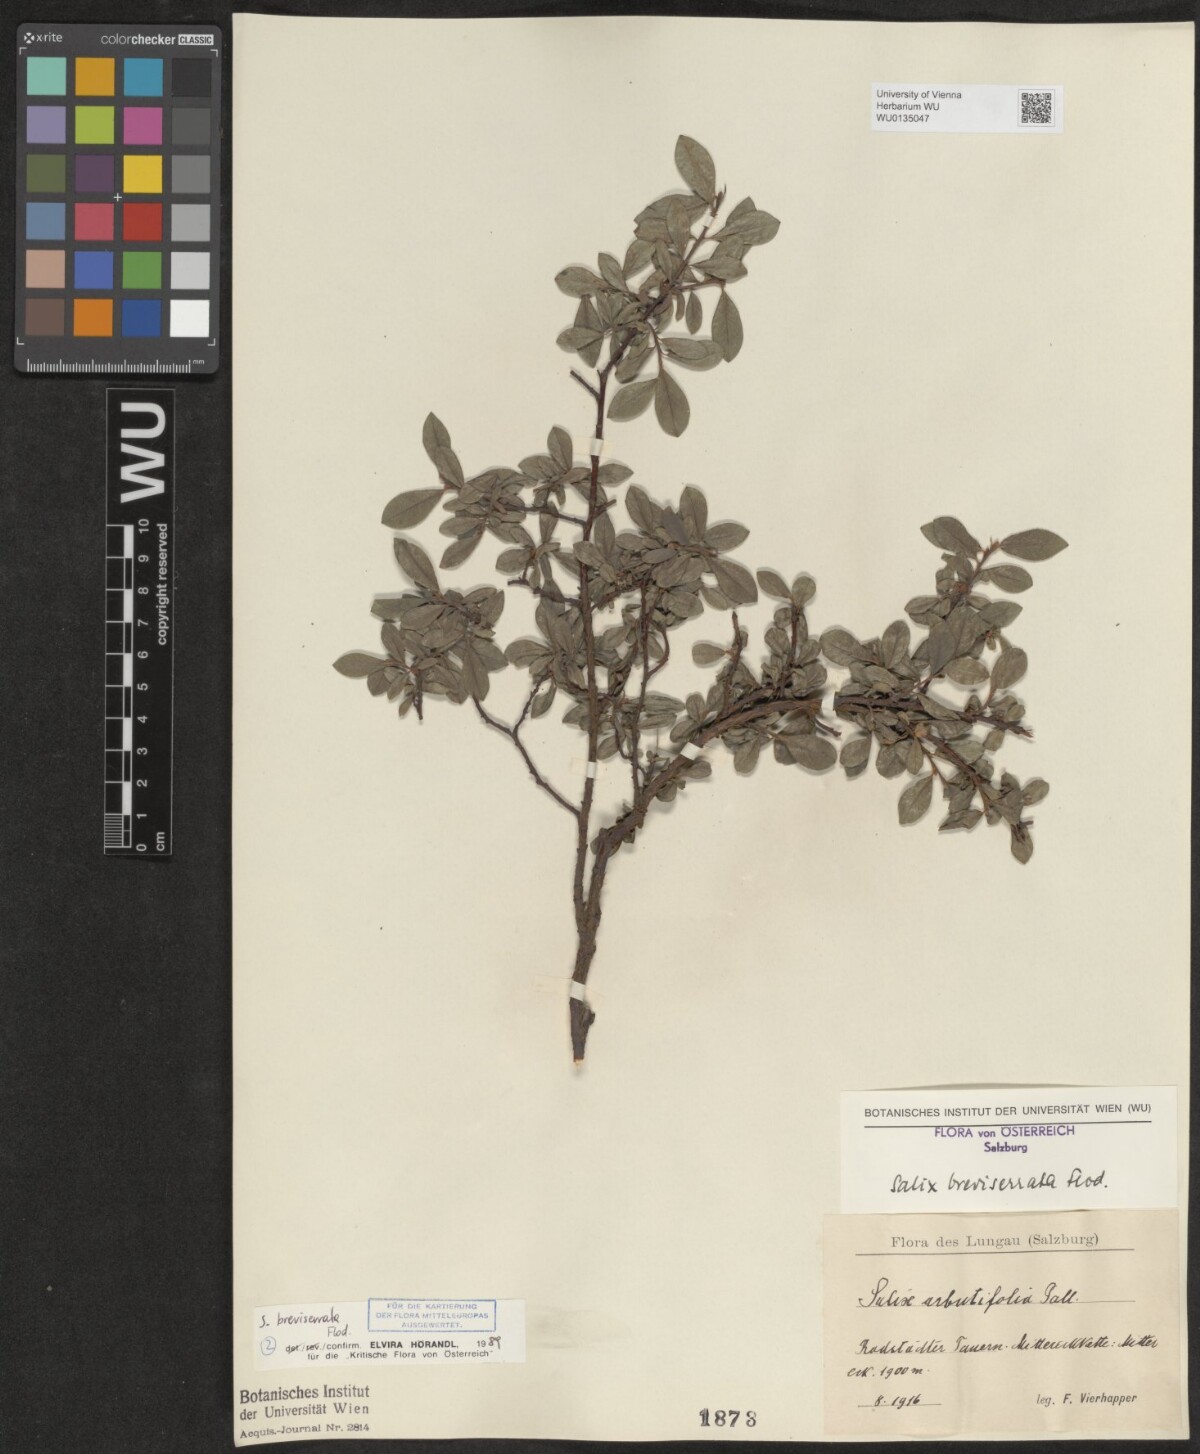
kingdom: Plantae
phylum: Tracheophyta
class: Magnoliopsida
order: Malpighiales
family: Salicaceae
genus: Salix
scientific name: Salix breviserrata
